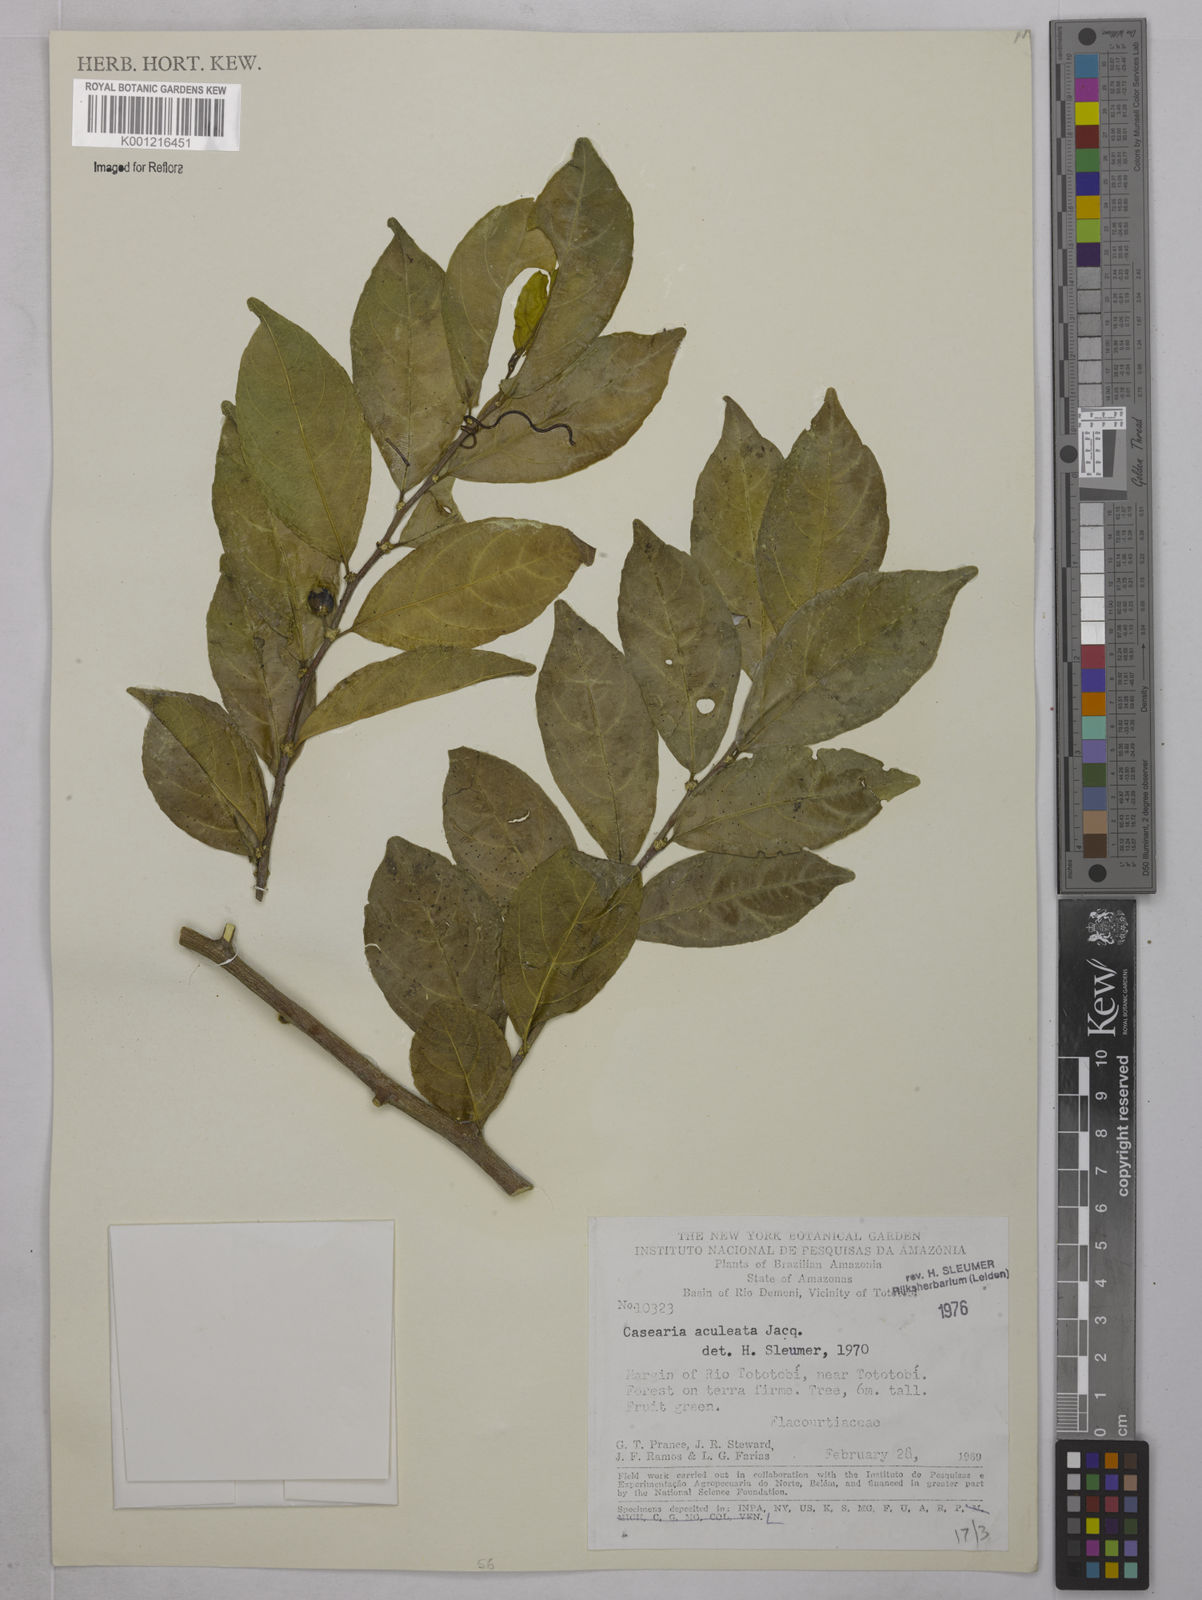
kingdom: Plantae
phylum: Tracheophyta
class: Magnoliopsida
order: Malpighiales
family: Salicaceae
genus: Casearia
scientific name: Casearia aculeata
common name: Cockspur
